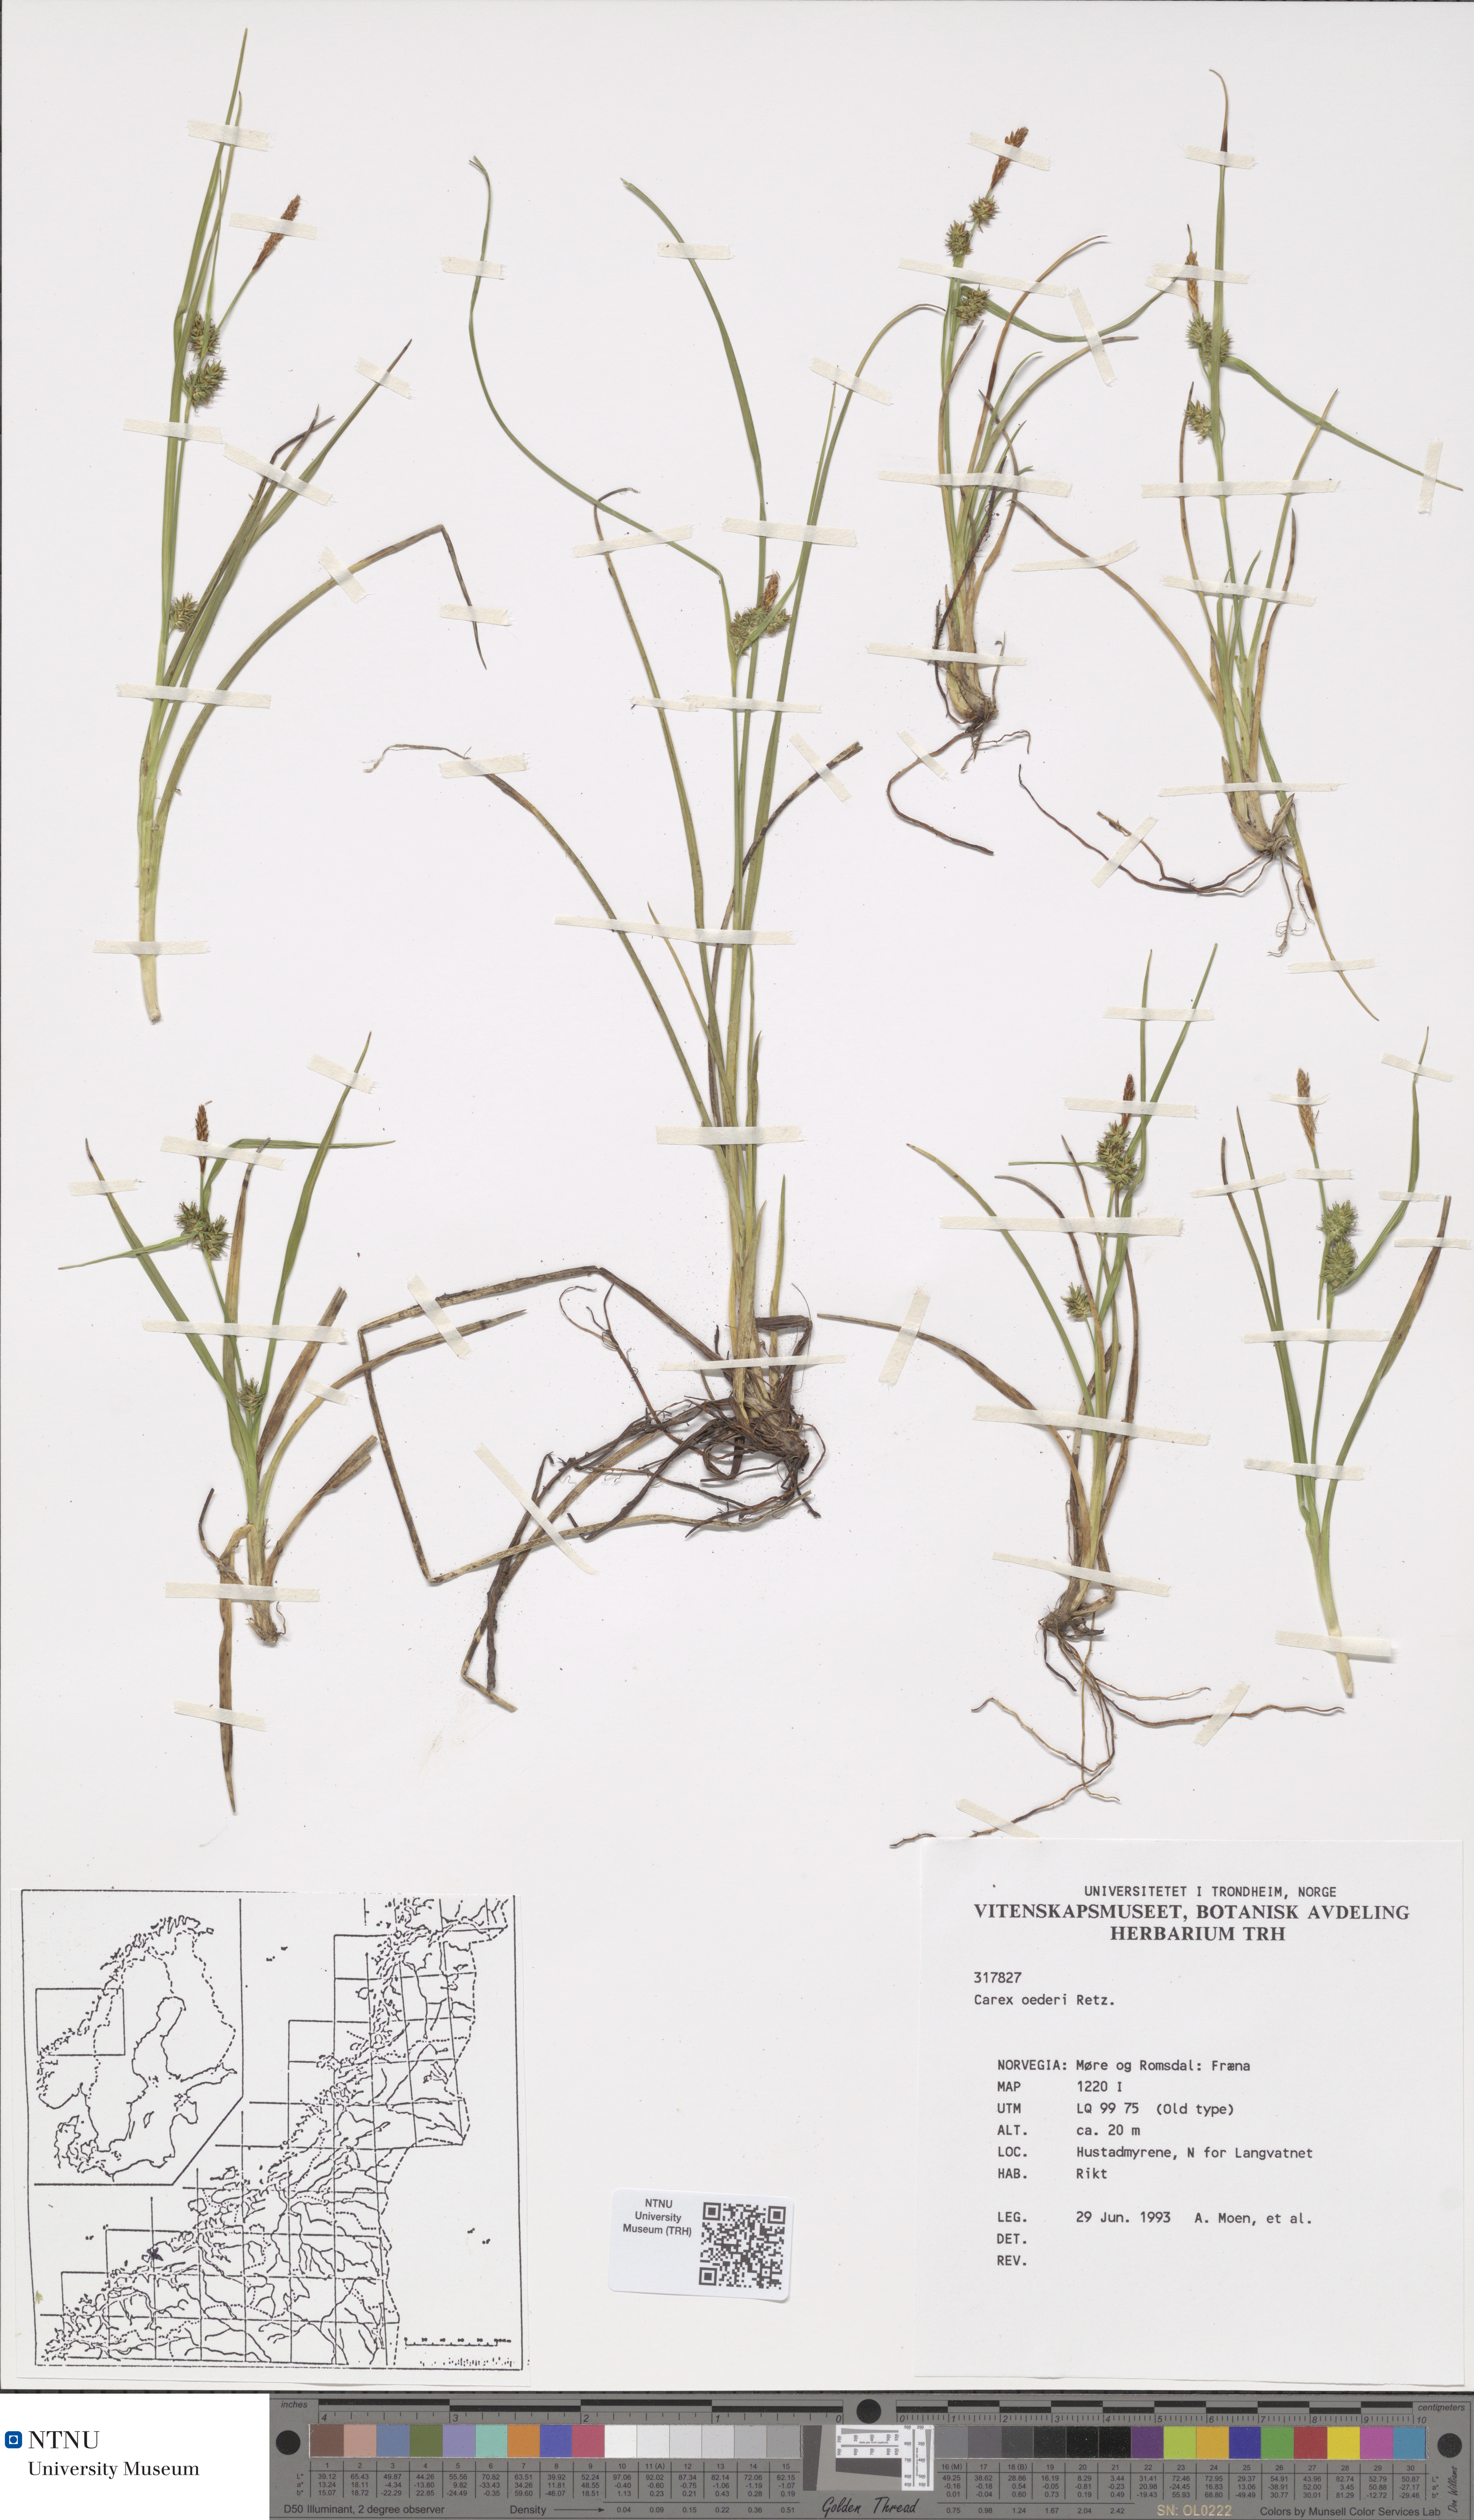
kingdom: Plantae
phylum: Tracheophyta
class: Liliopsida
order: Poales
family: Cyperaceae
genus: Carex
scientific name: Carex oederi
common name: Common & small-fruited yellow-sedge
